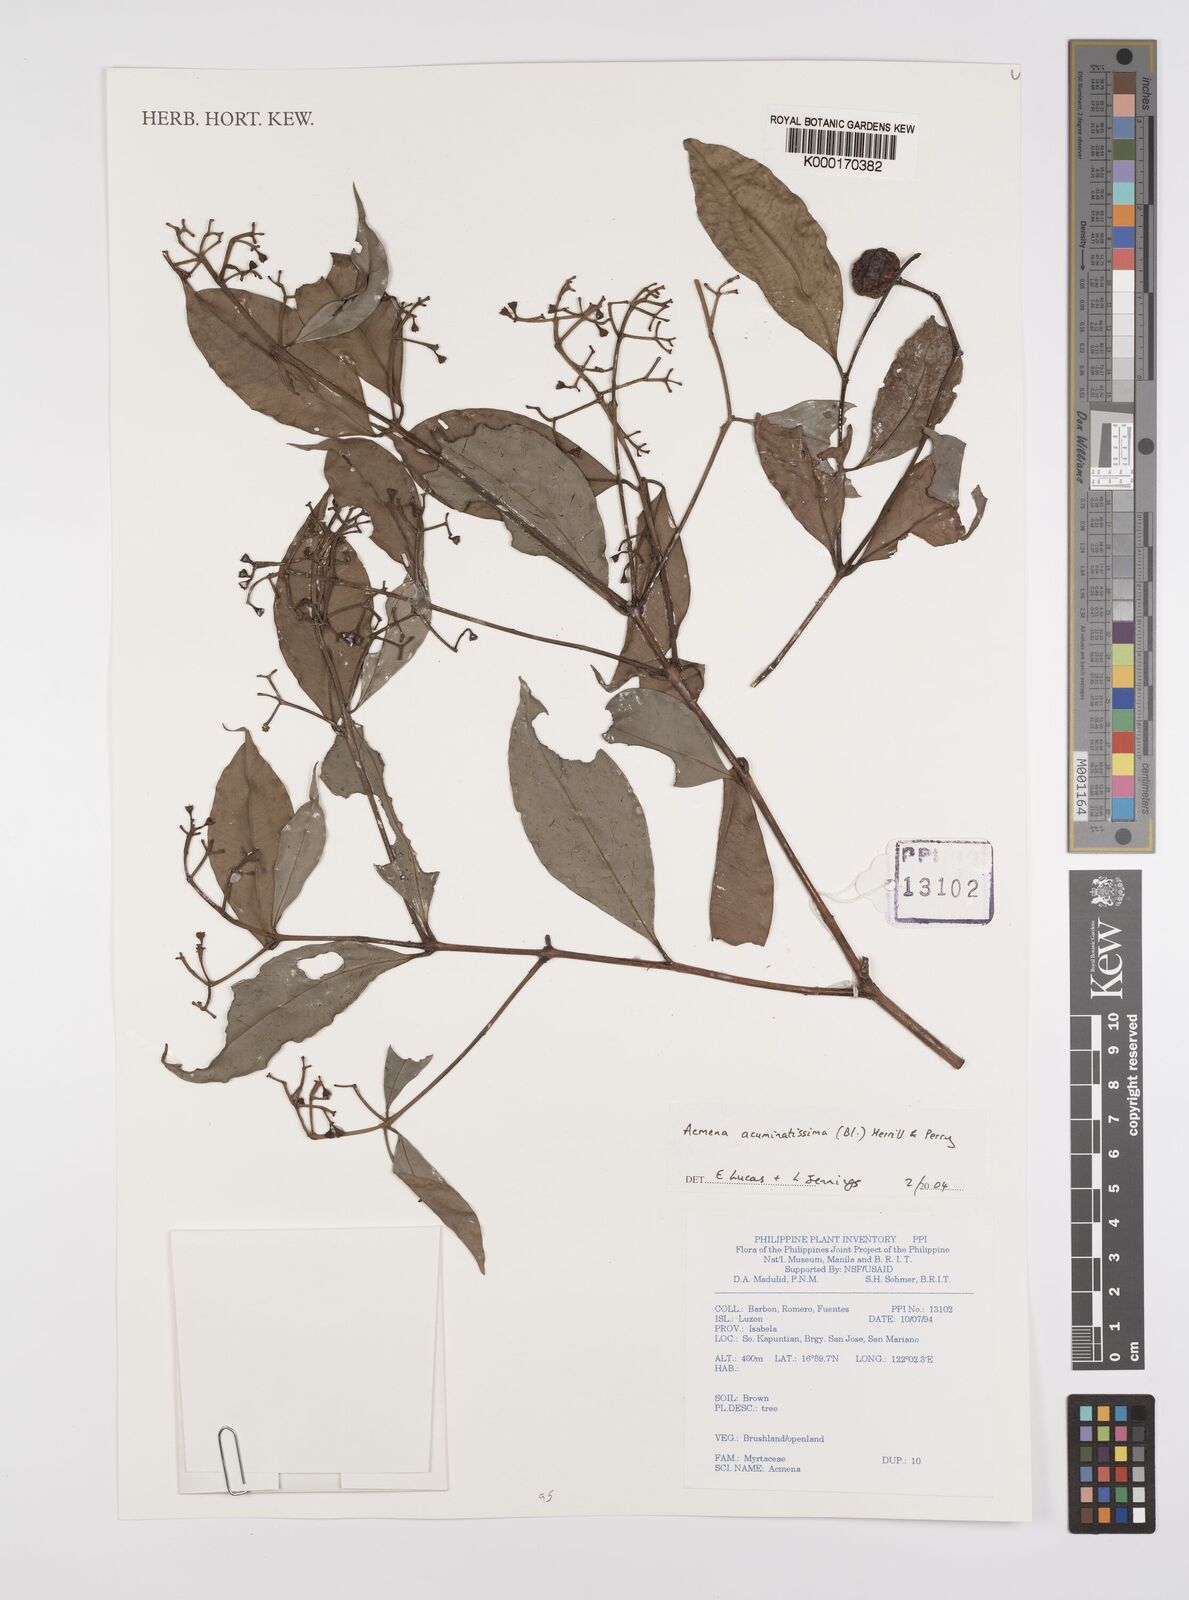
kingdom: Plantae
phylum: Tracheophyta
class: Magnoliopsida
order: Myrtales
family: Myrtaceae
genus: Syzygium
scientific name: Syzygium acuminatissimum
